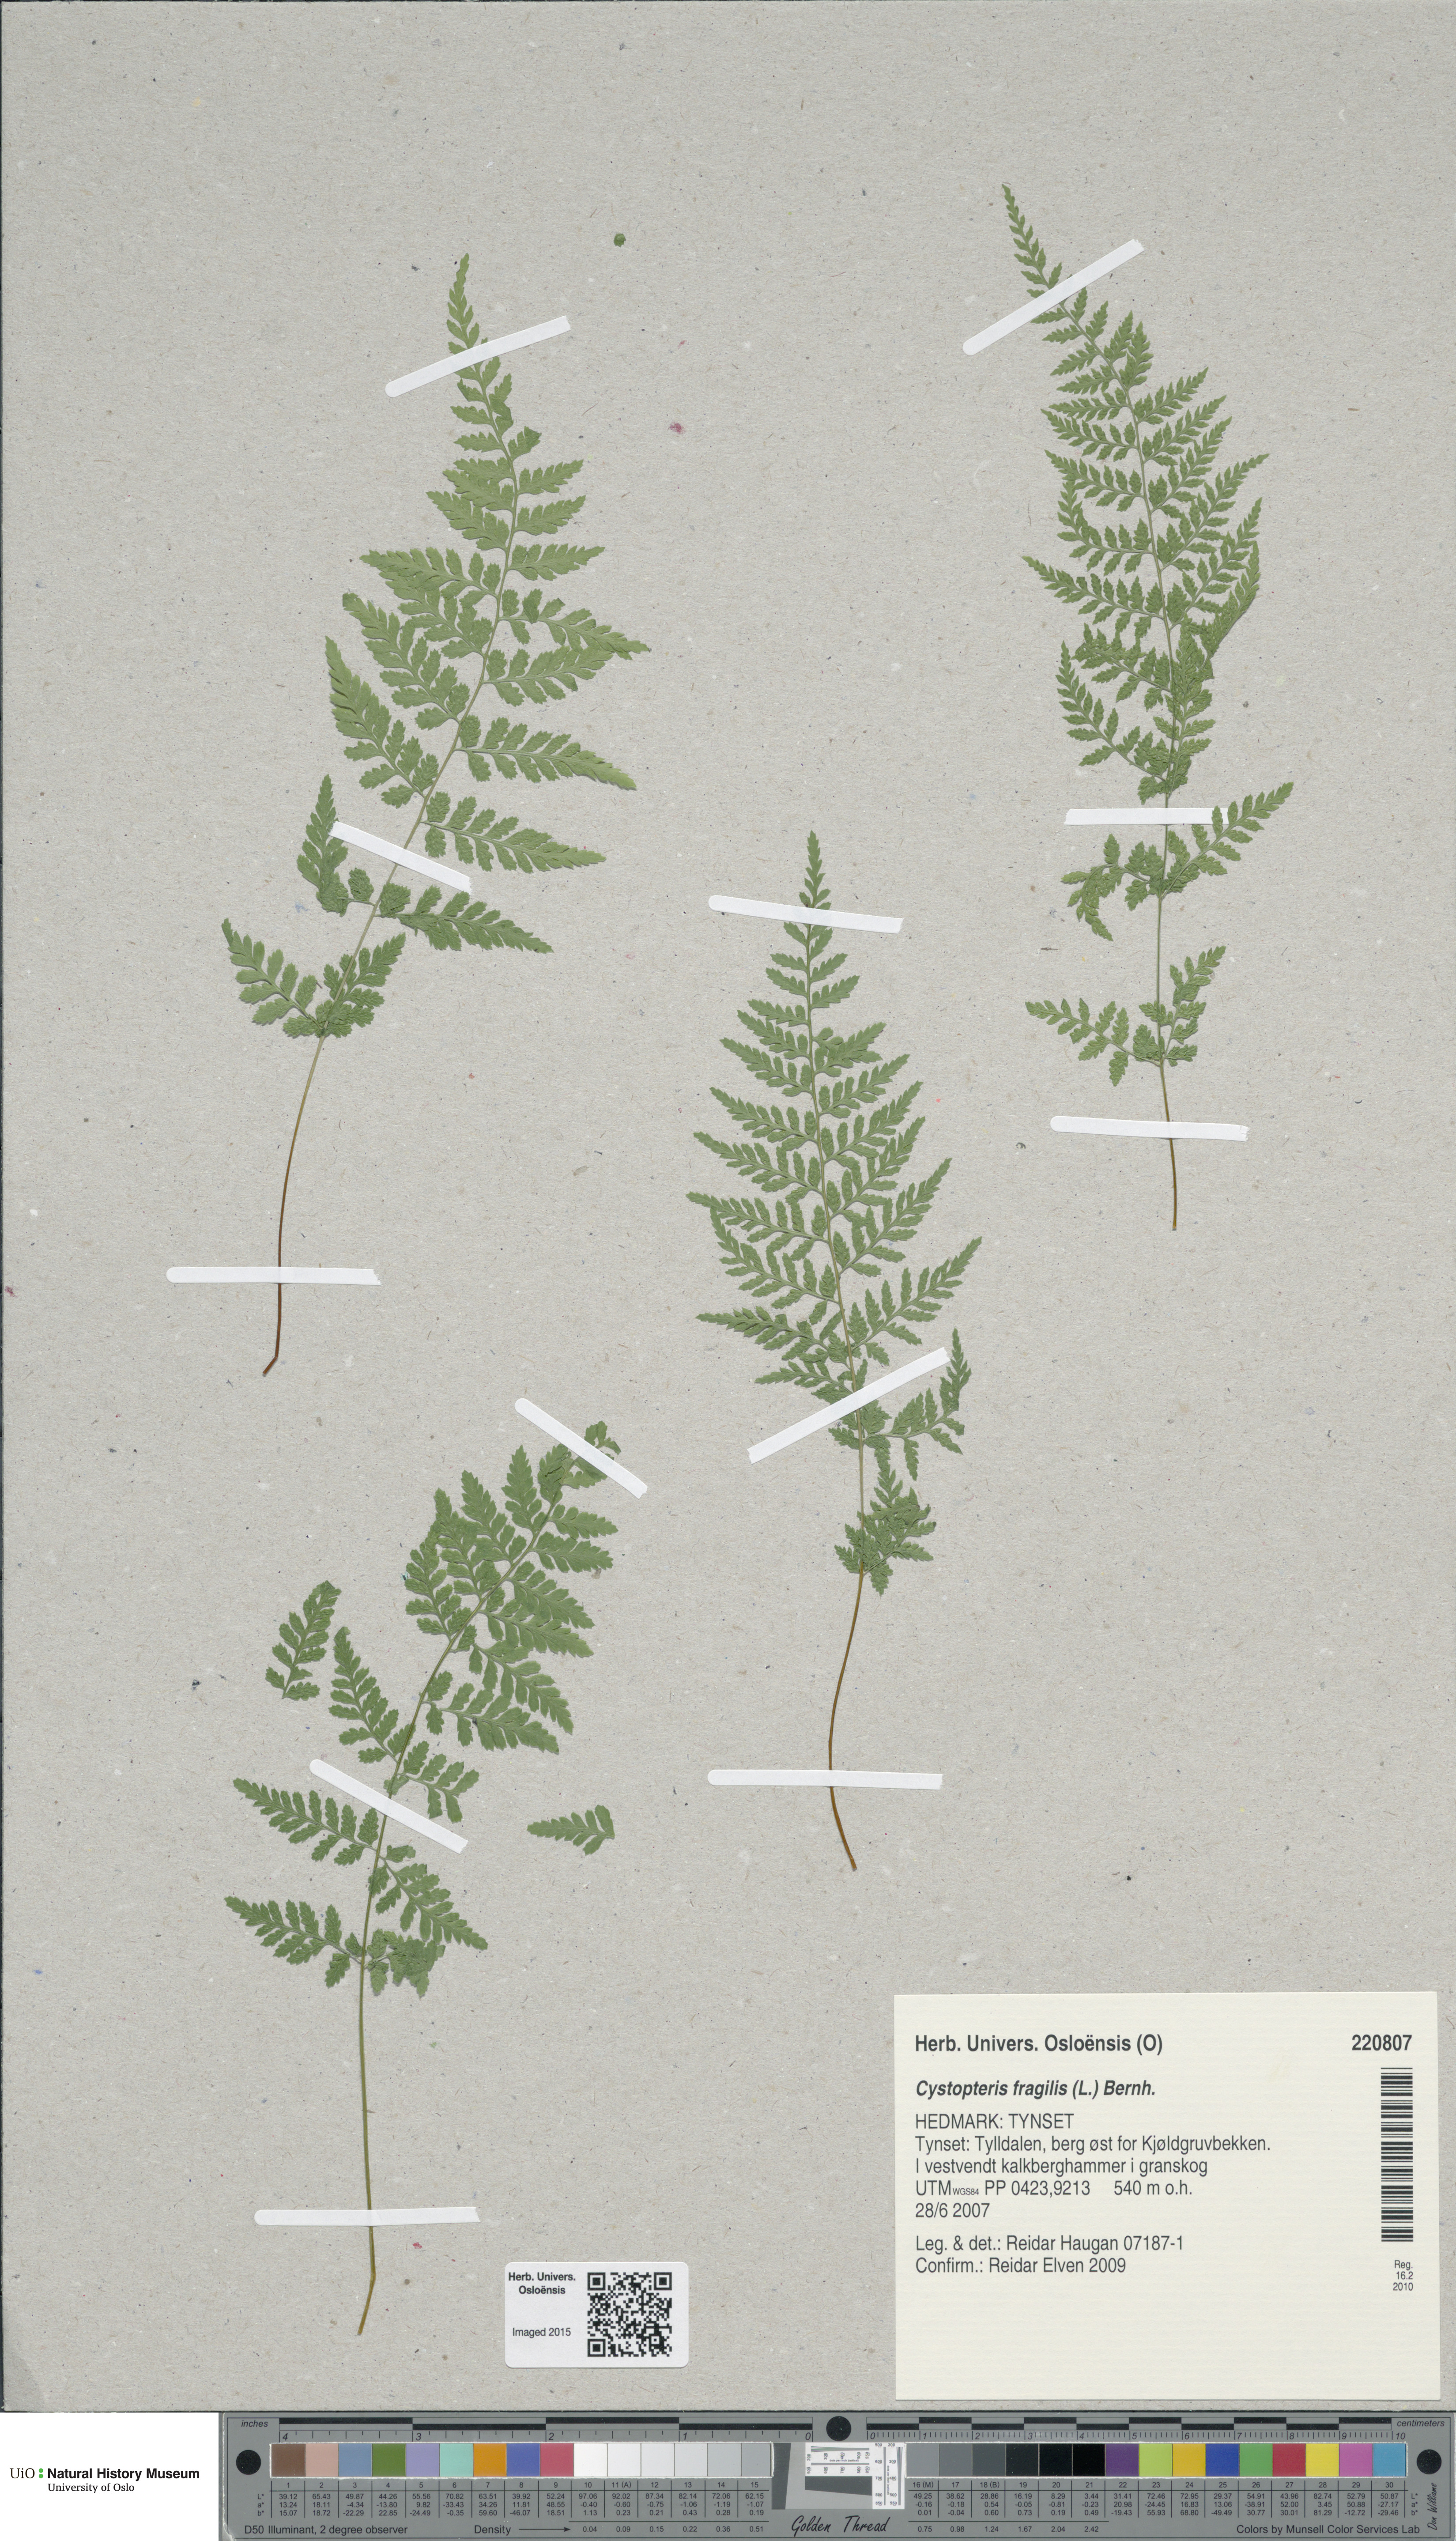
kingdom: Plantae
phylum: Tracheophyta
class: Polypodiopsida
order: Polypodiales
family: Cystopteridaceae
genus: Cystopteris
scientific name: Cystopteris fragilis
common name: Brittle bladder fern
